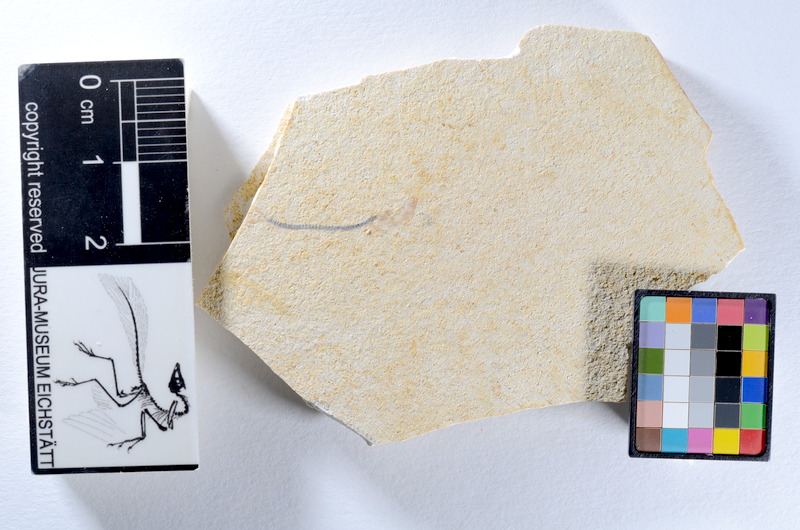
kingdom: Animalia
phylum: Chordata
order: Salmoniformes
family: Orthogonikleithridae
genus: Orthogonikleithrus
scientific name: Orthogonikleithrus hoelli
